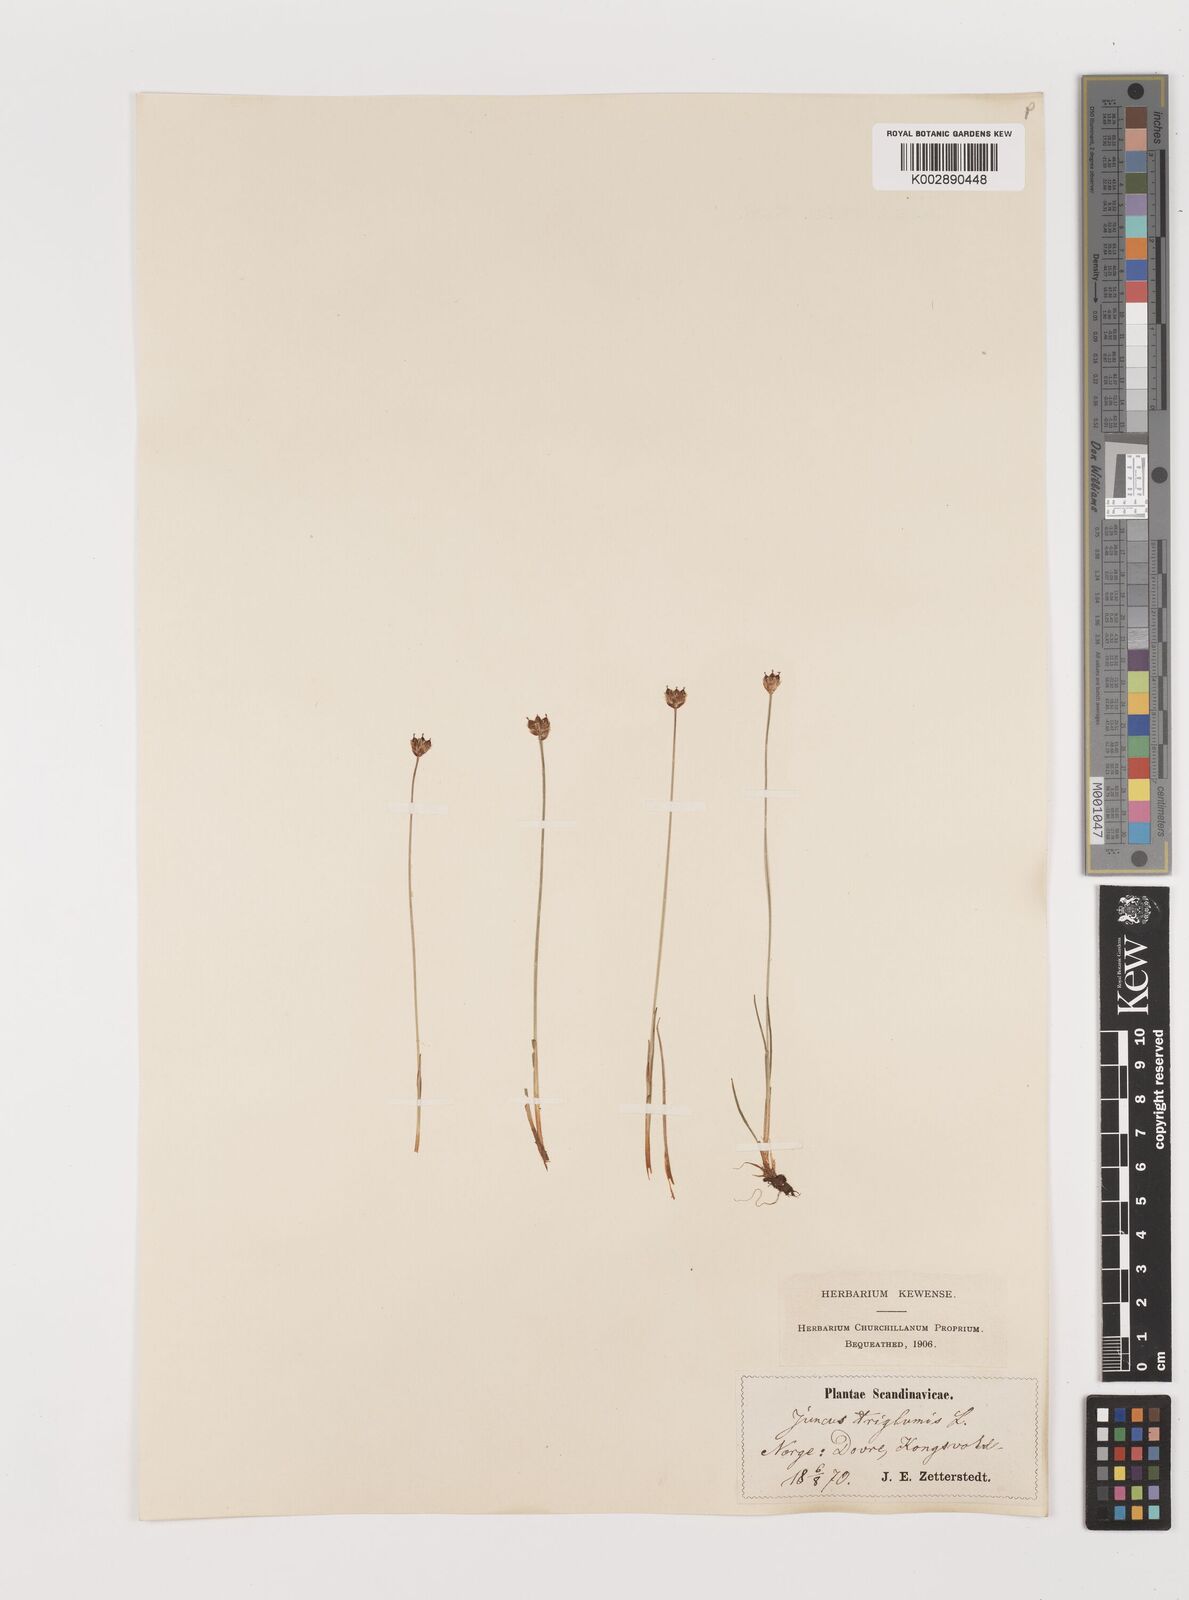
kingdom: Plantae
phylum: Tracheophyta
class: Liliopsida
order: Poales
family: Juncaceae
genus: Juncus
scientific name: Juncus triglumis
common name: Three-flowered rush
